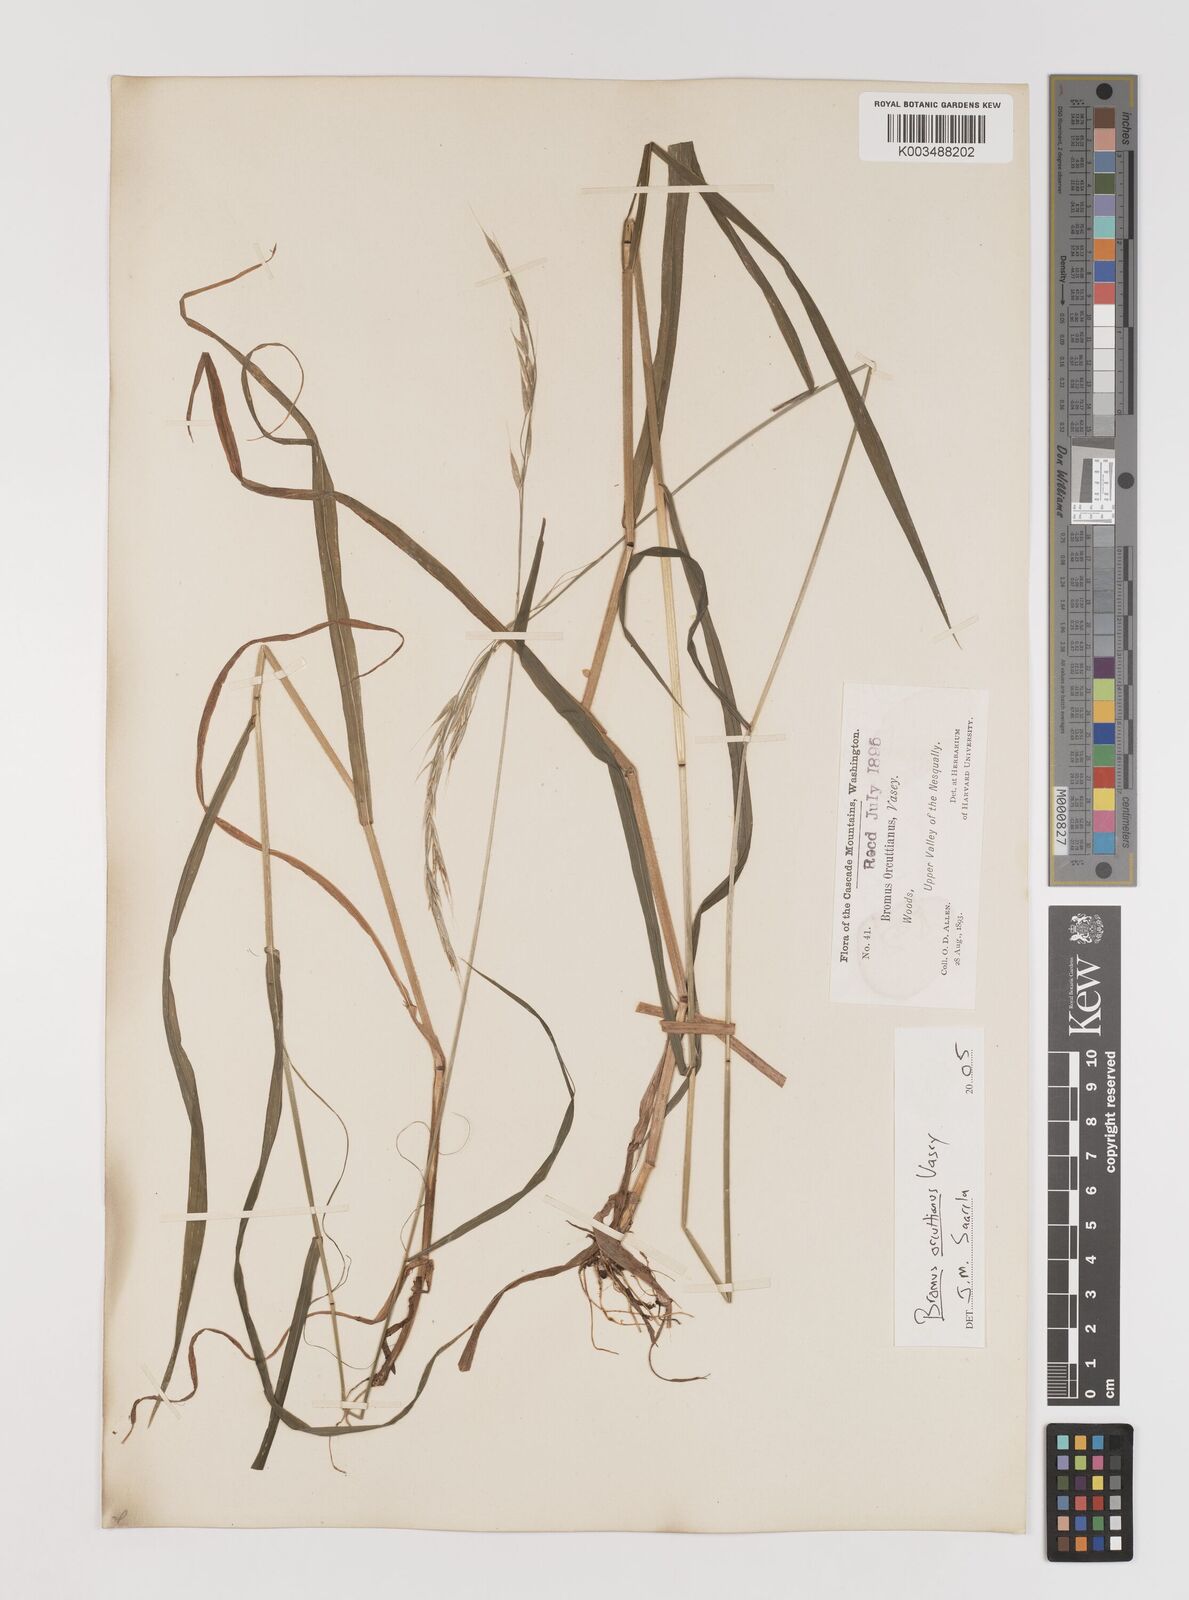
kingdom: Plantae
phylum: Tracheophyta
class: Liliopsida
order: Poales
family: Poaceae
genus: Bromus
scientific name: Bromus orcuttianus
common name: Orcutt's brome
